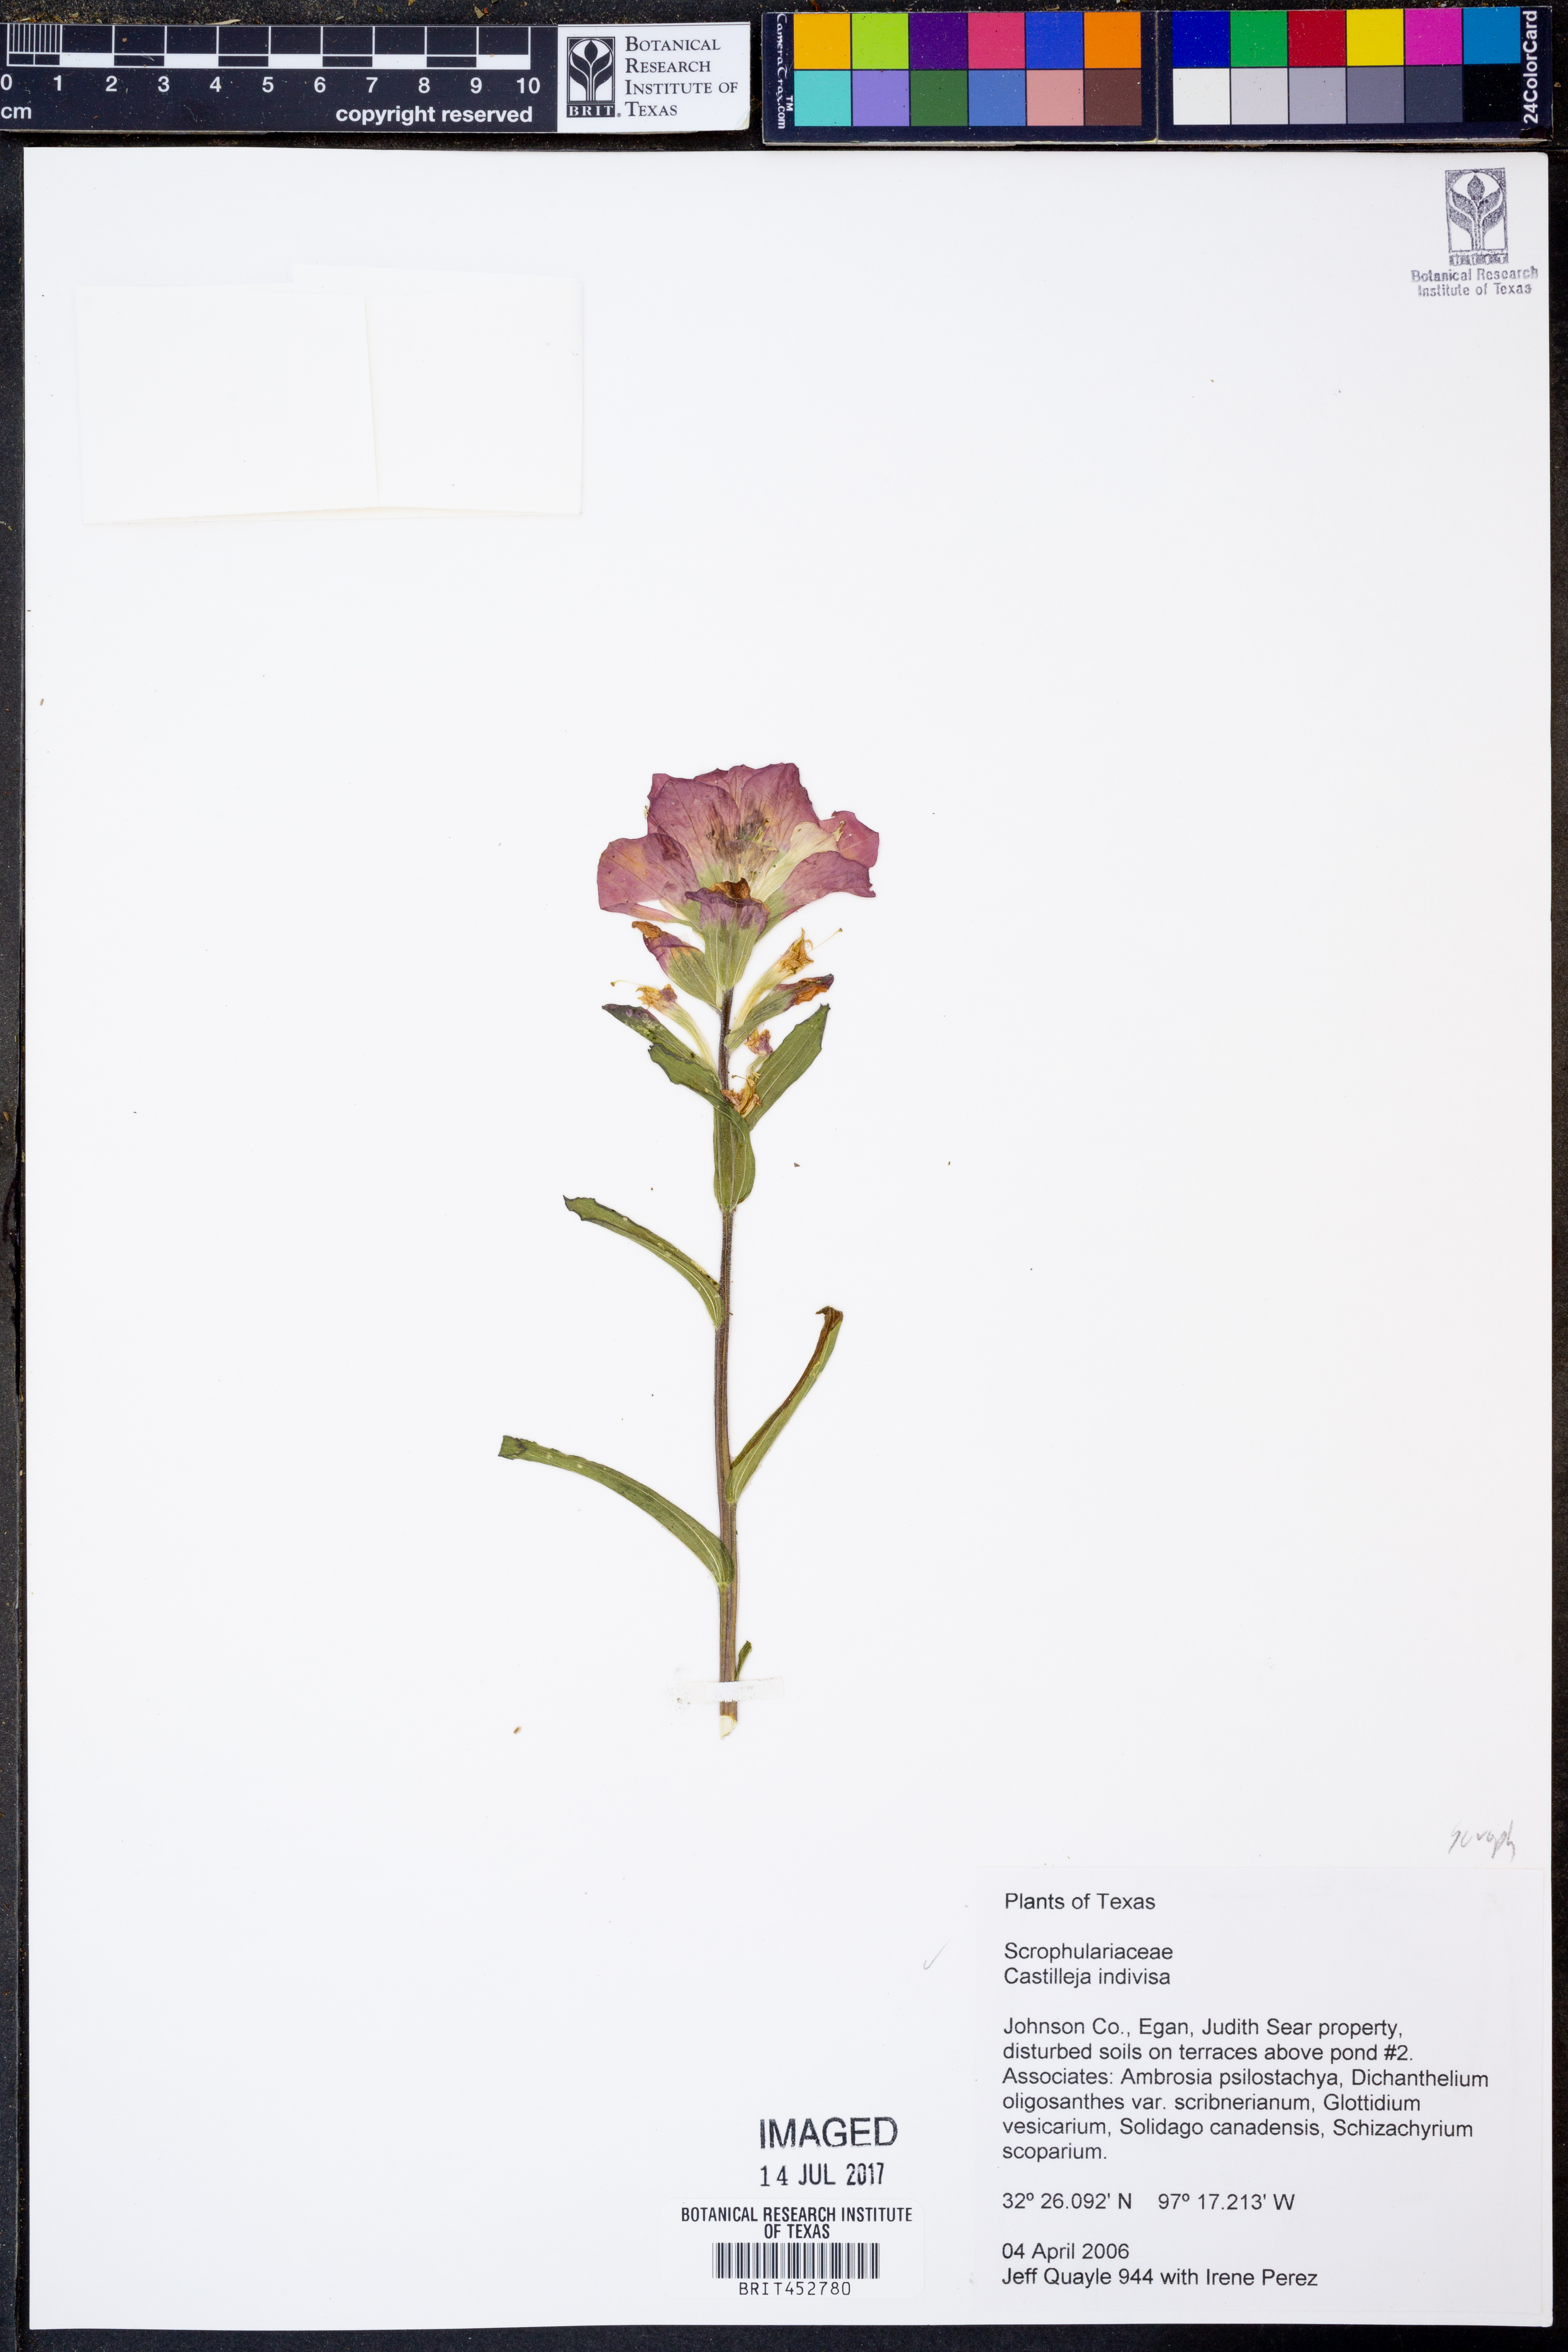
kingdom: Plantae
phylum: Tracheophyta
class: Magnoliopsida
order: Lamiales
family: Orobanchaceae
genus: Castilleja
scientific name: Castilleja indivisa
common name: Texas paintbrush
